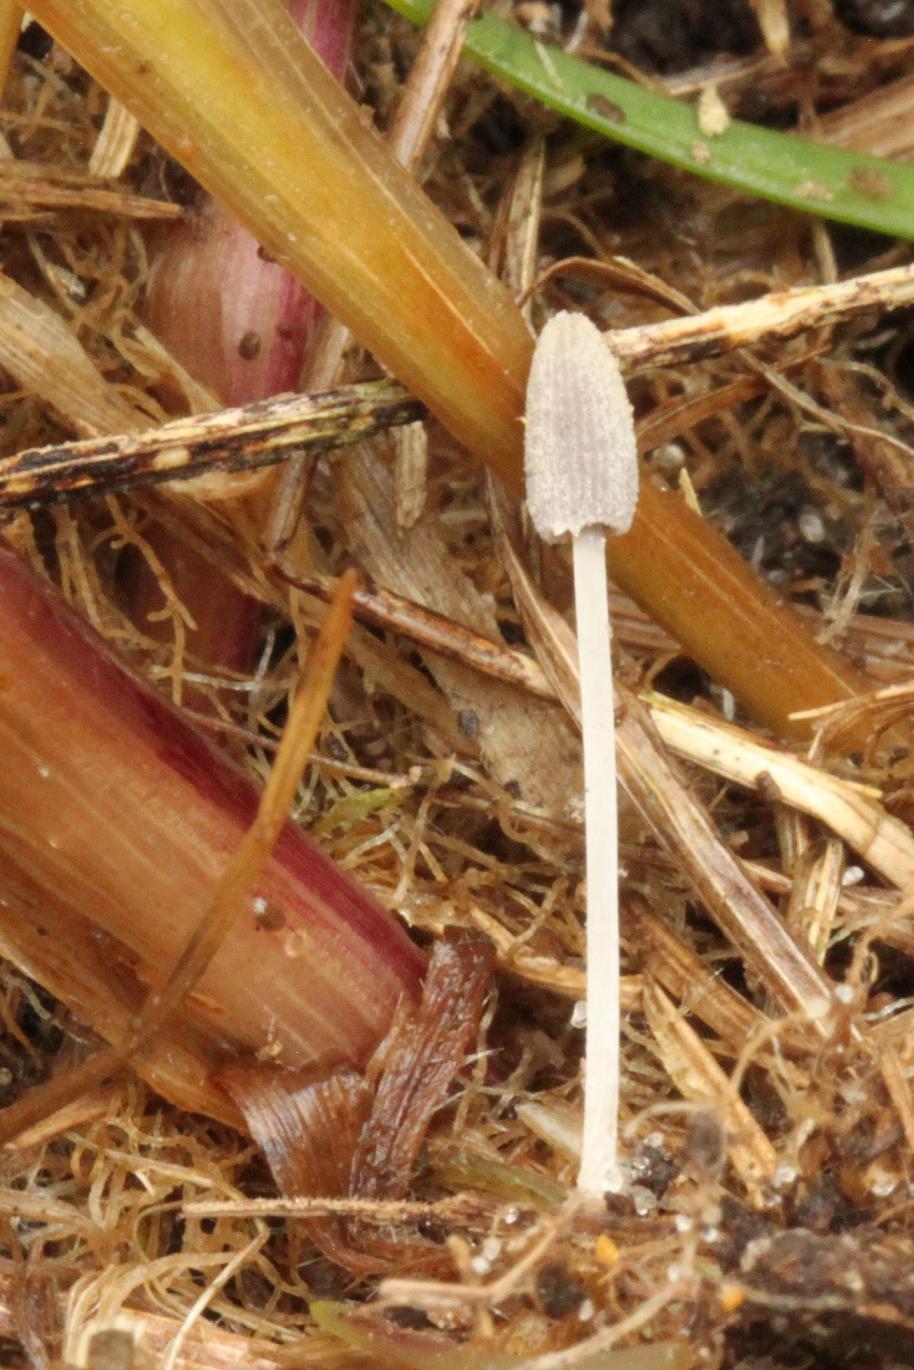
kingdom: Fungi
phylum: Basidiomycota
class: Agaricomycetes
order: Agaricales
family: Psathyrellaceae
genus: Narcissea
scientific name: Narcissea patouillardii
